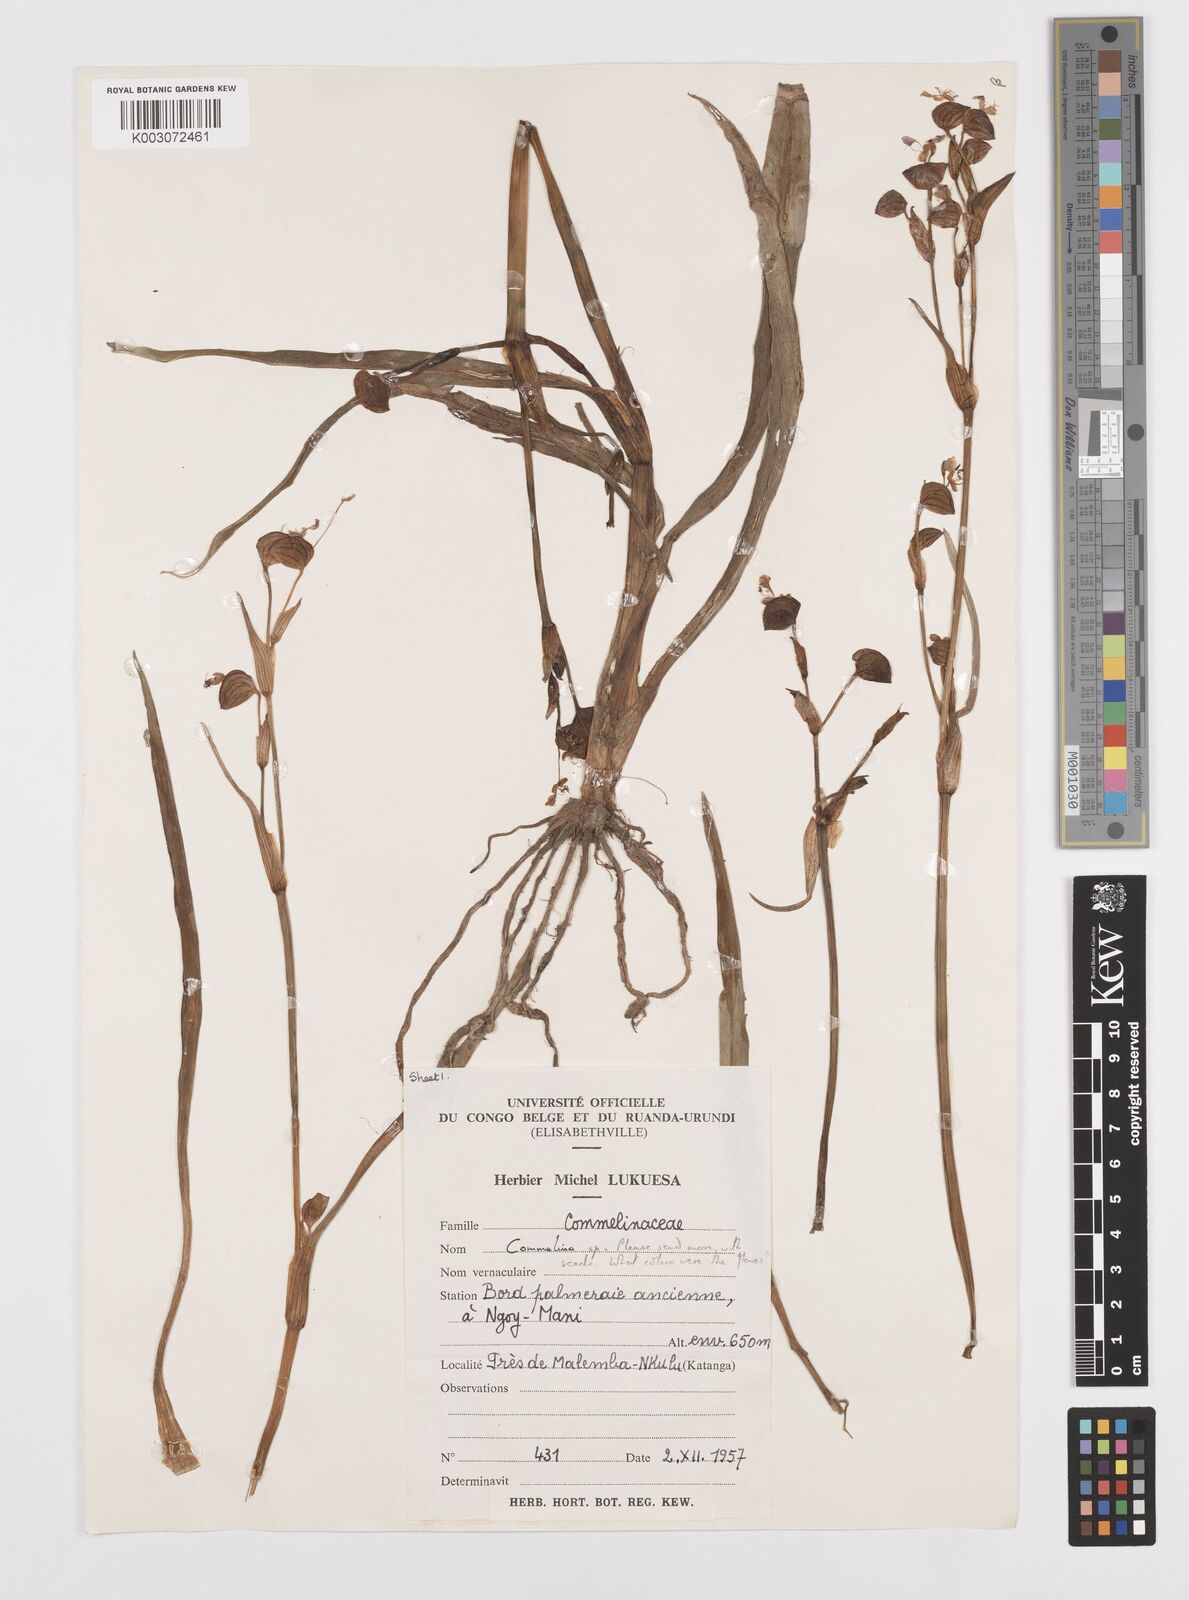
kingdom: Plantae
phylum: Tracheophyta
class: Liliopsida
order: Commelinales
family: Commelinaceae
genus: Commelina
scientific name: Commelina
